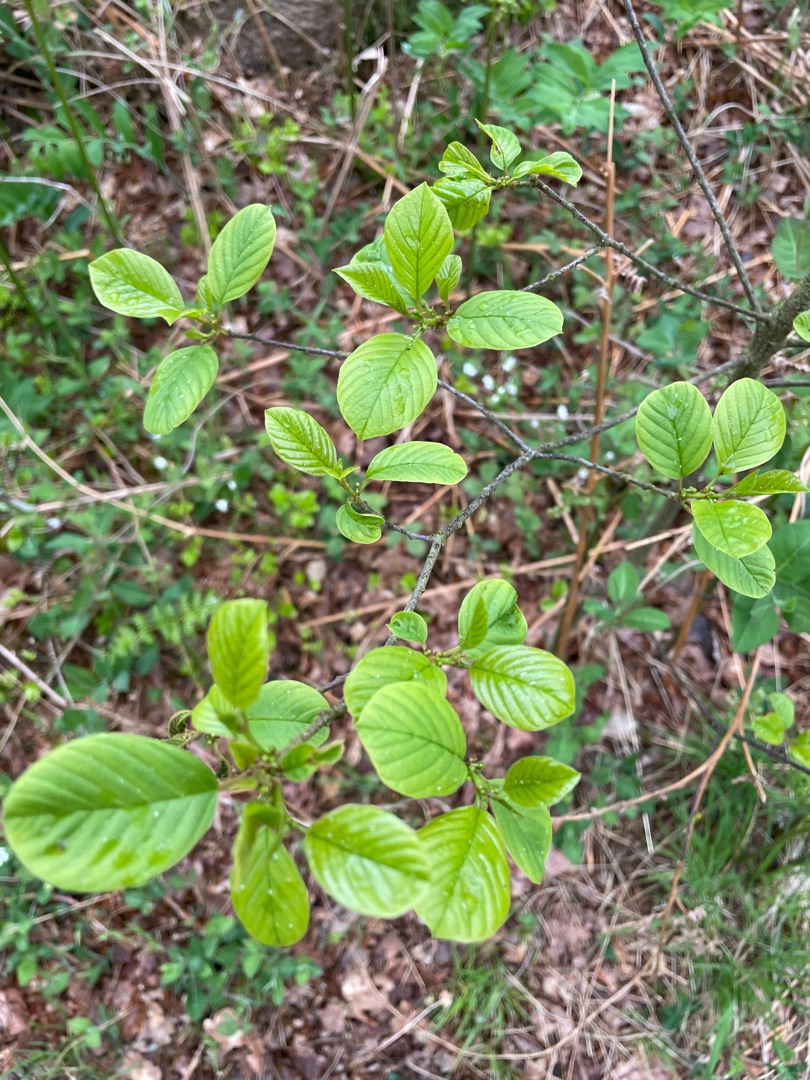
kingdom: Plantae
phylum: Tracheophyta
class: Magnoliopsida
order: Rosales
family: Rhamnaceae
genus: Frangula
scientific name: Frangula alnus
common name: Tørst
